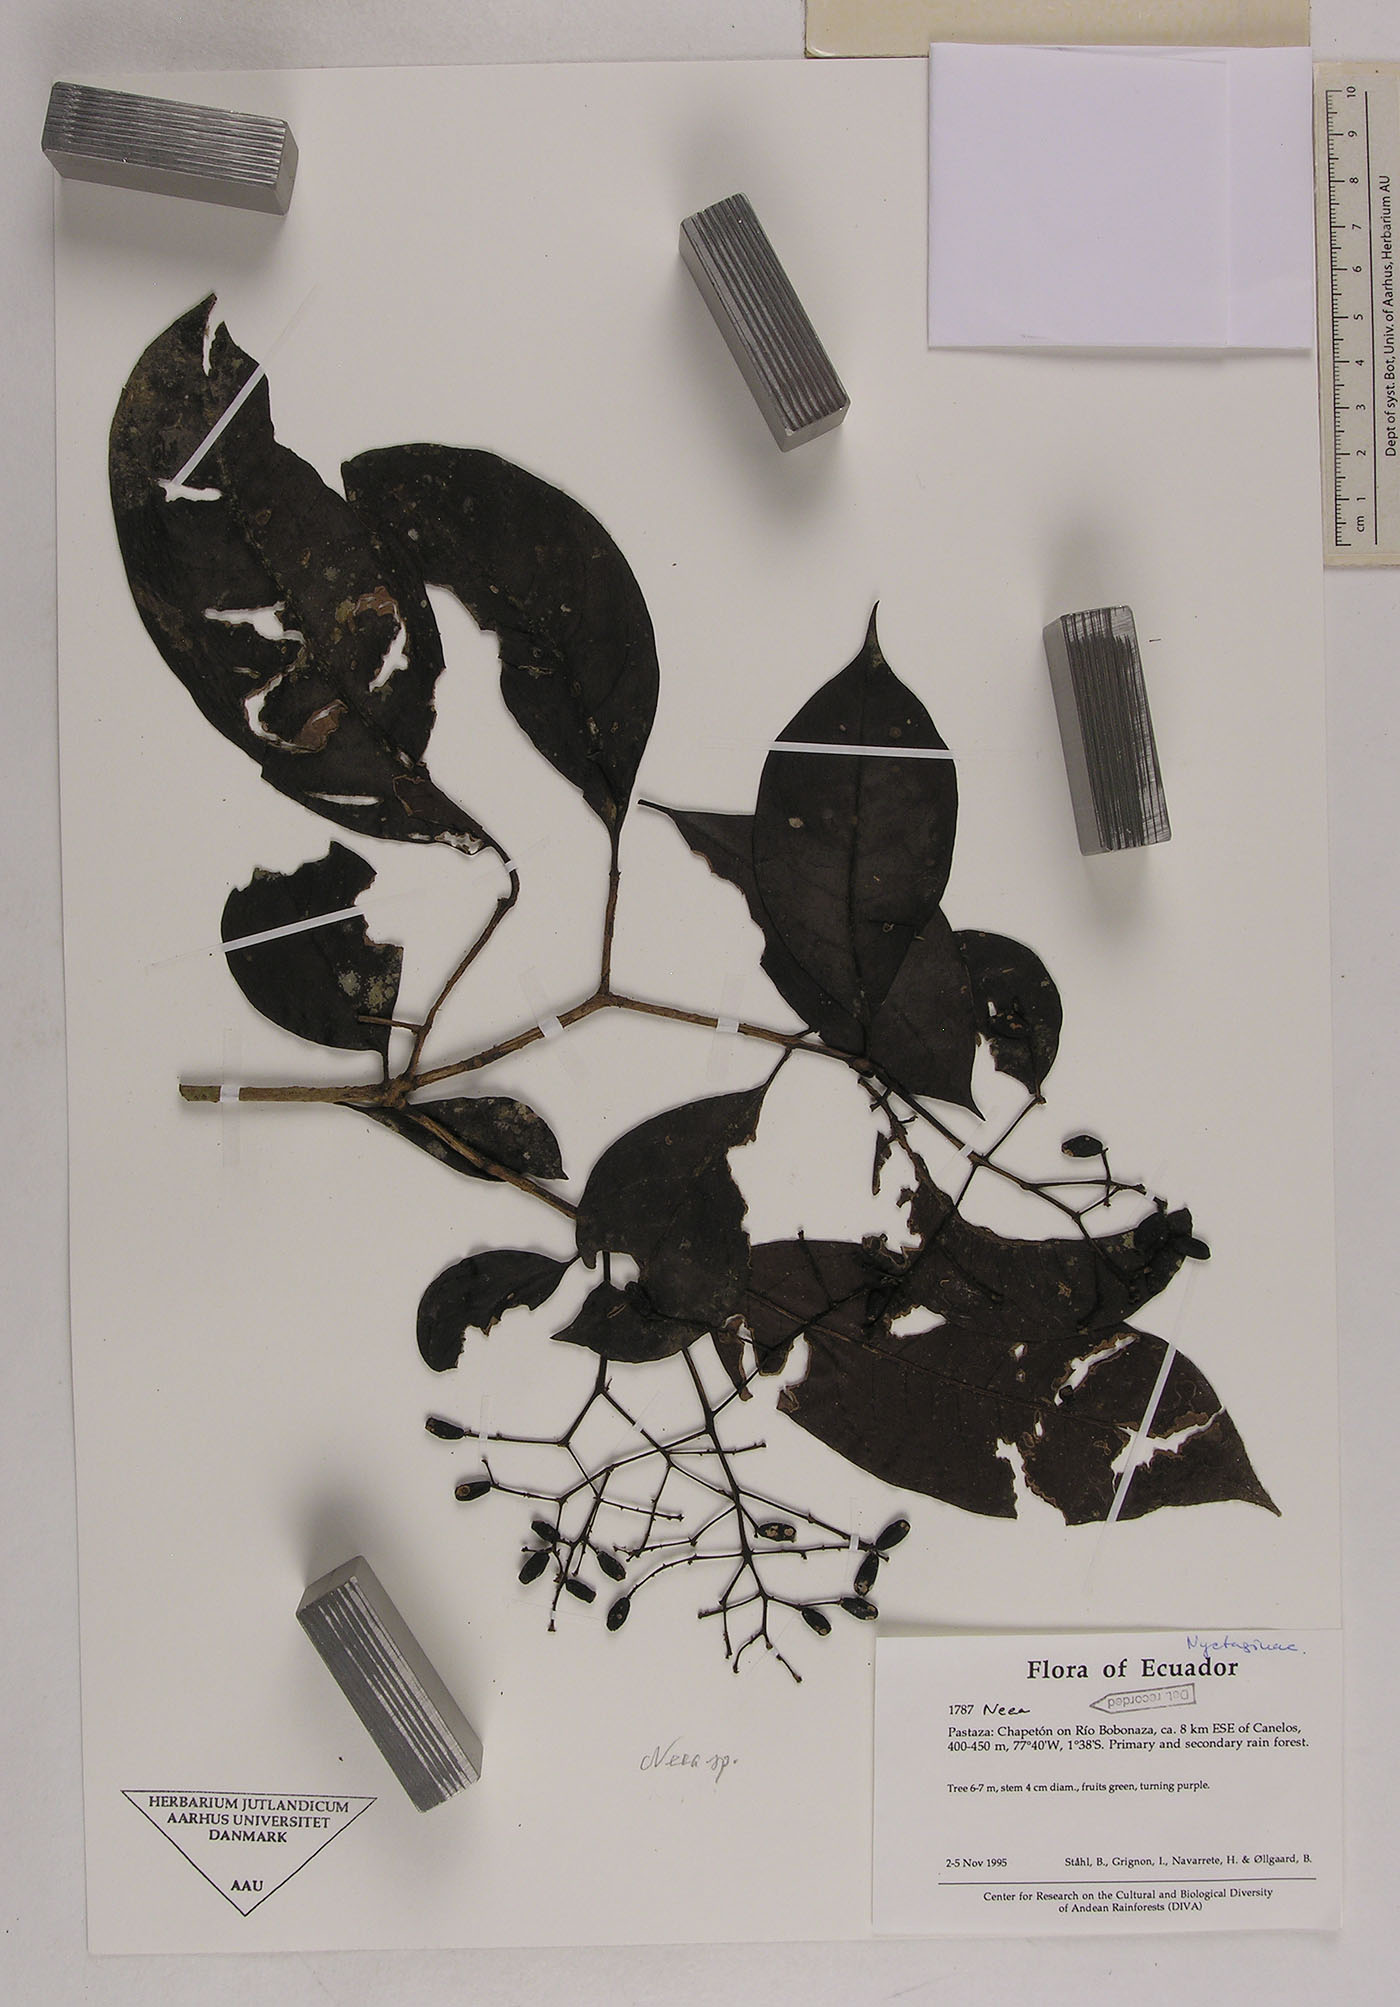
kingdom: Plantae
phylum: Tracheophyta
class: Magnoliopsida
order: Caryophyllales
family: Nyctaginaceae
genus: Neea
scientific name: Neea
